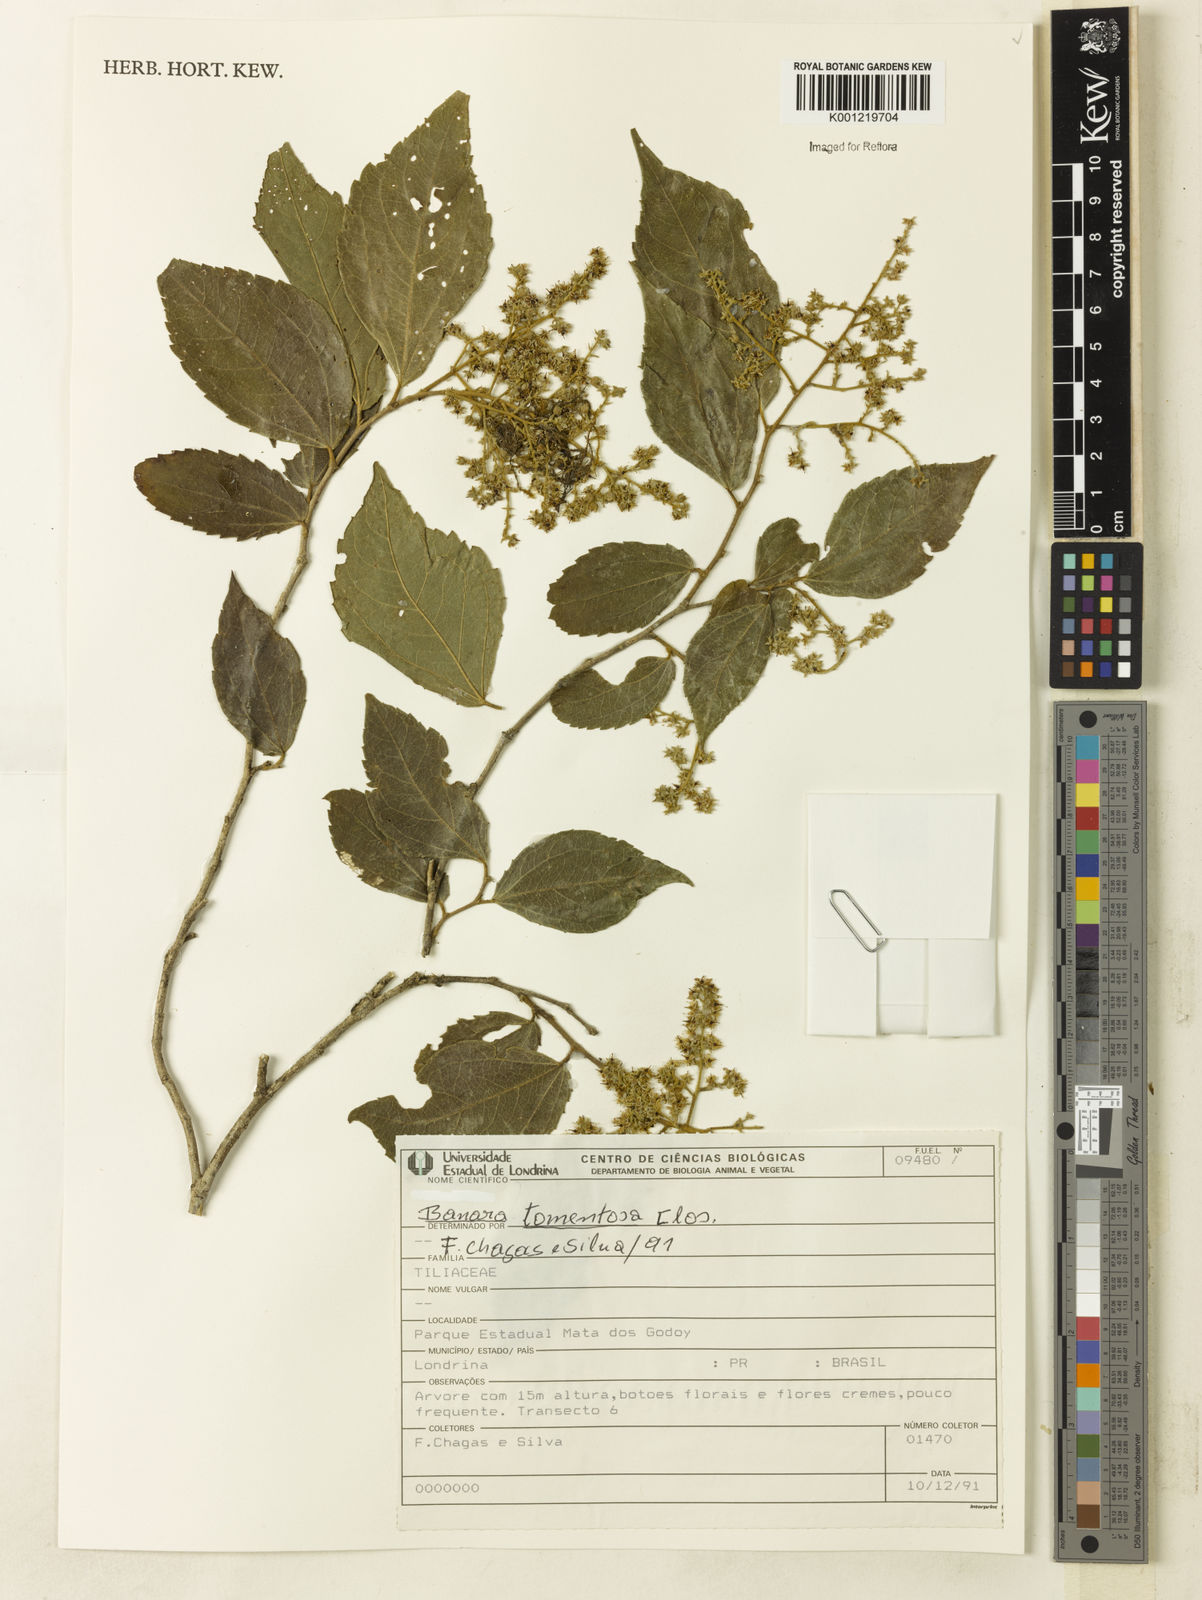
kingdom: Plantae
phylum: Tracheophyta
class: Magnoliopsida
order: Malpighiales
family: Salicaceae
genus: Banara
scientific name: Banara tomentosa
